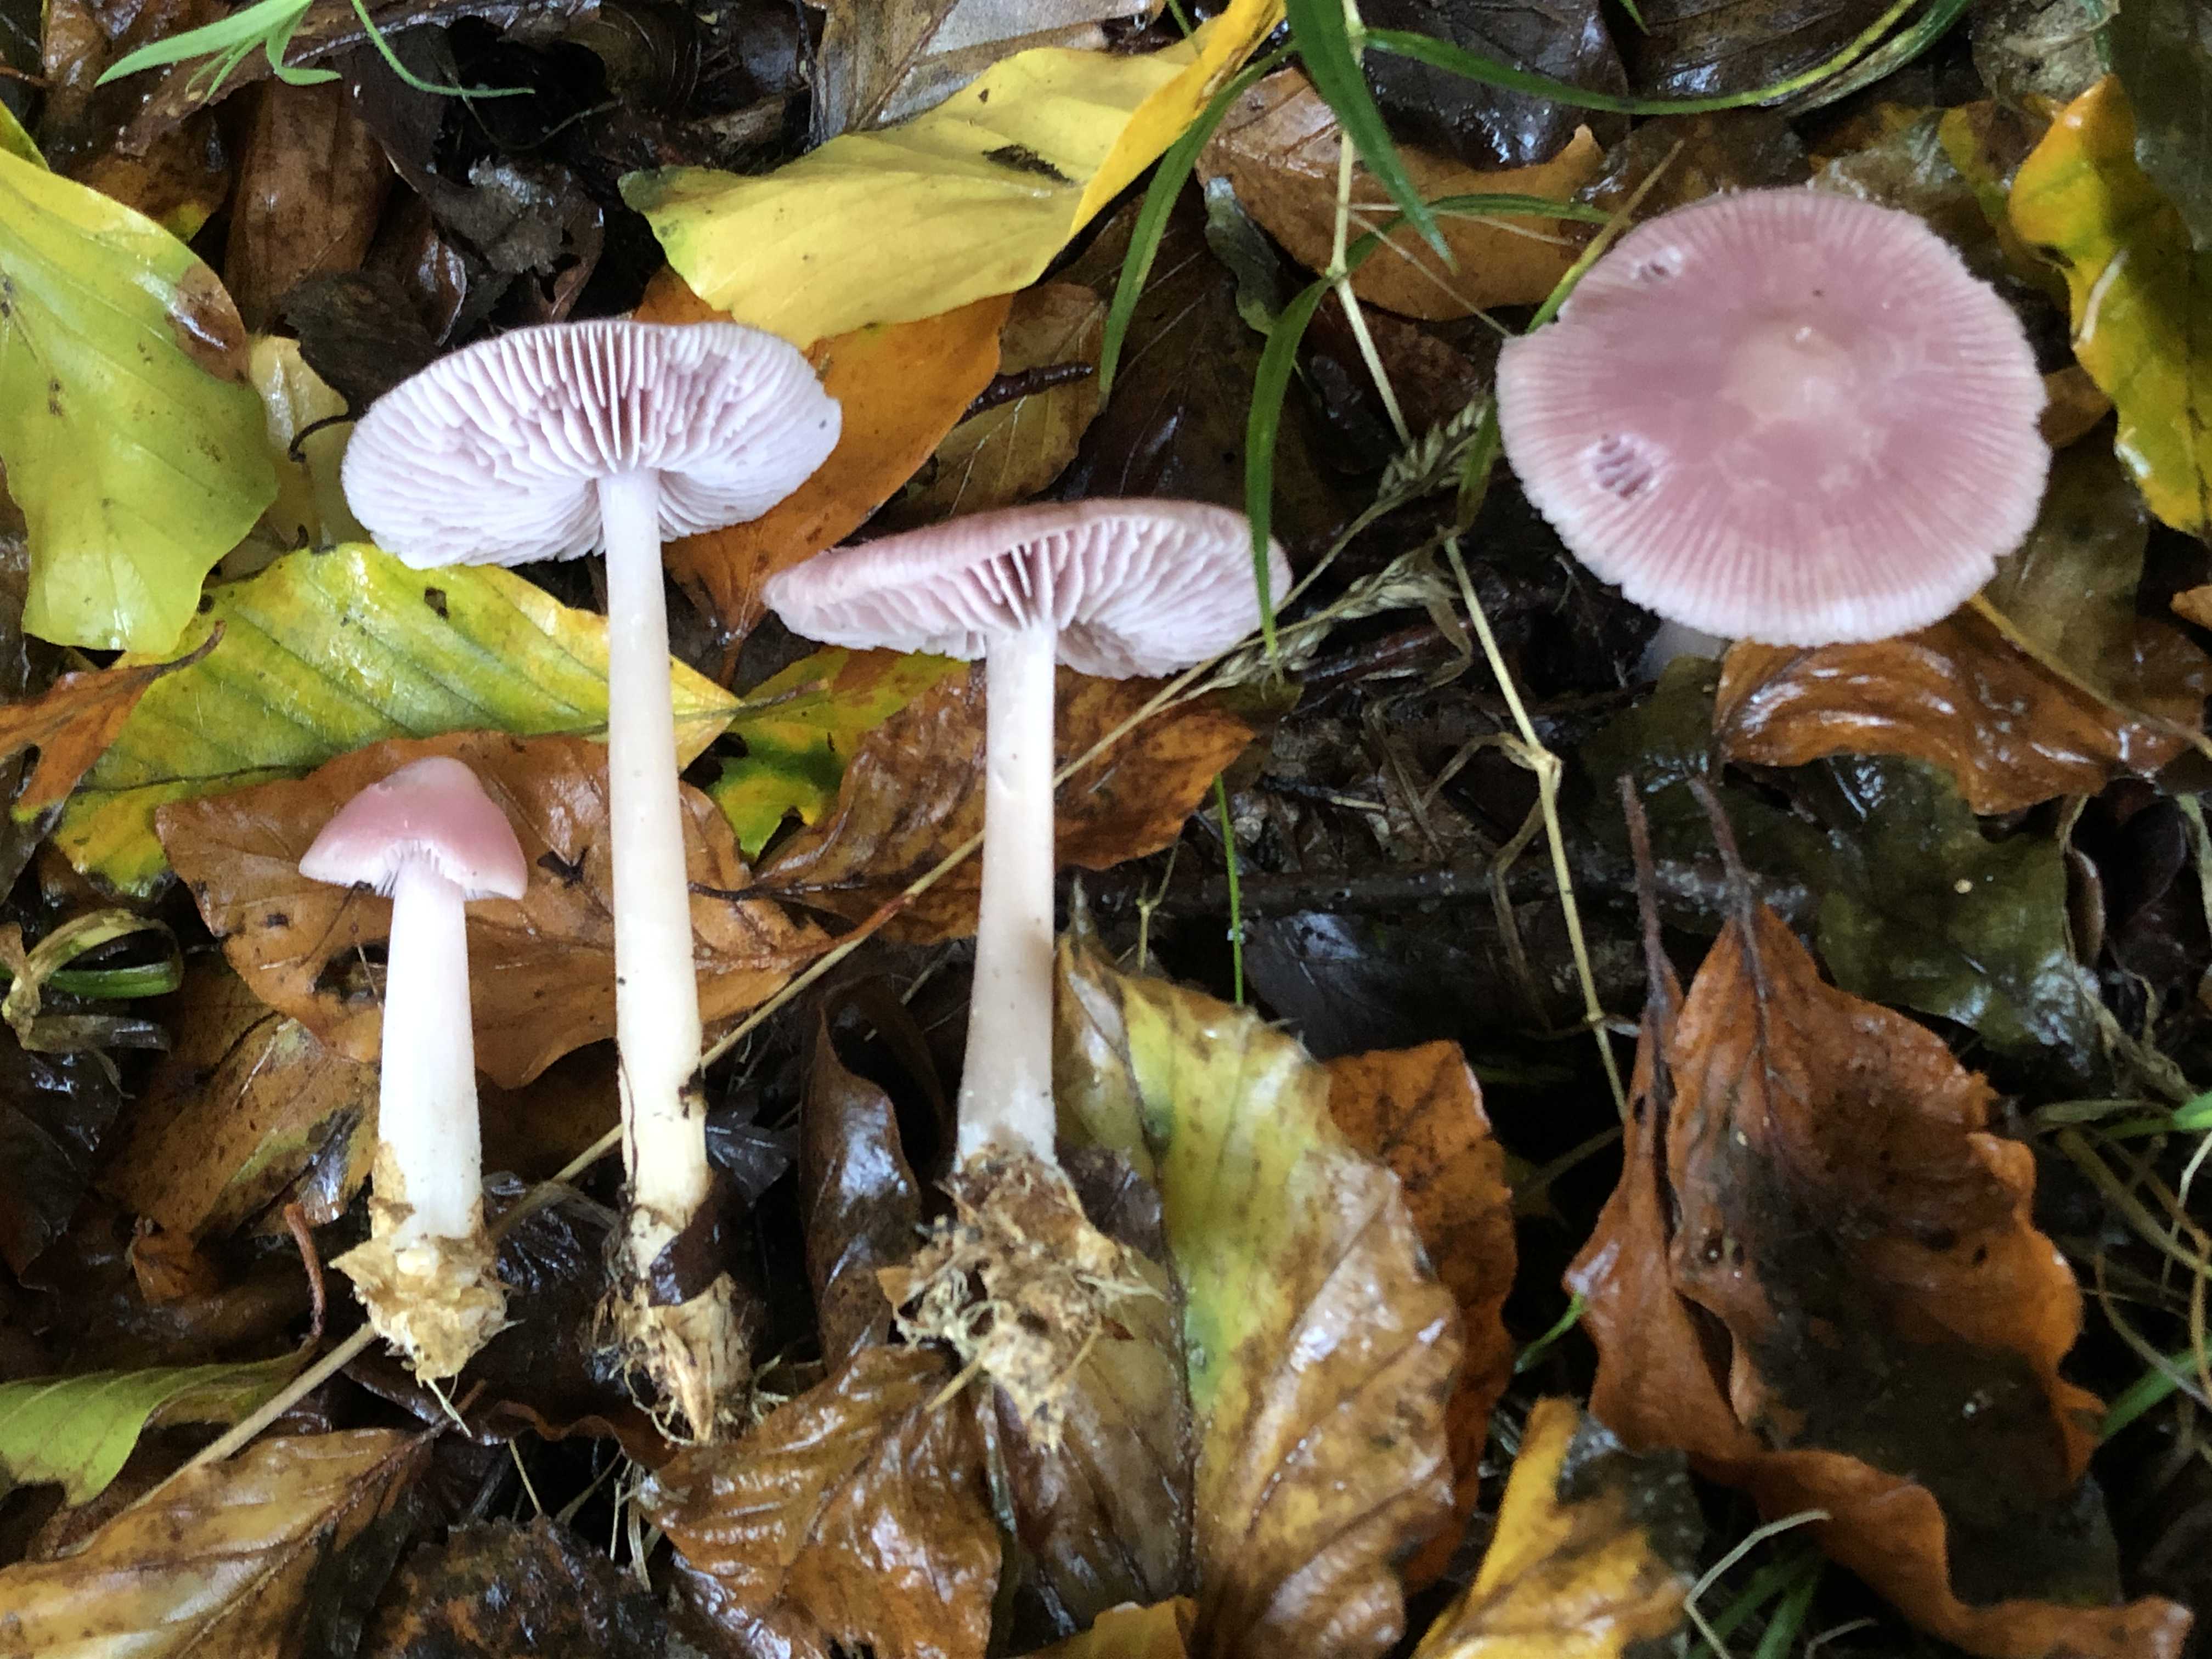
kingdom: Fungi
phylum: Basidiomycota
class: Agaricomycetes
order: Agaricales
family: Mycenaceae
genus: Mycena
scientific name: Mycena rosea
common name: rosa huesvamp
